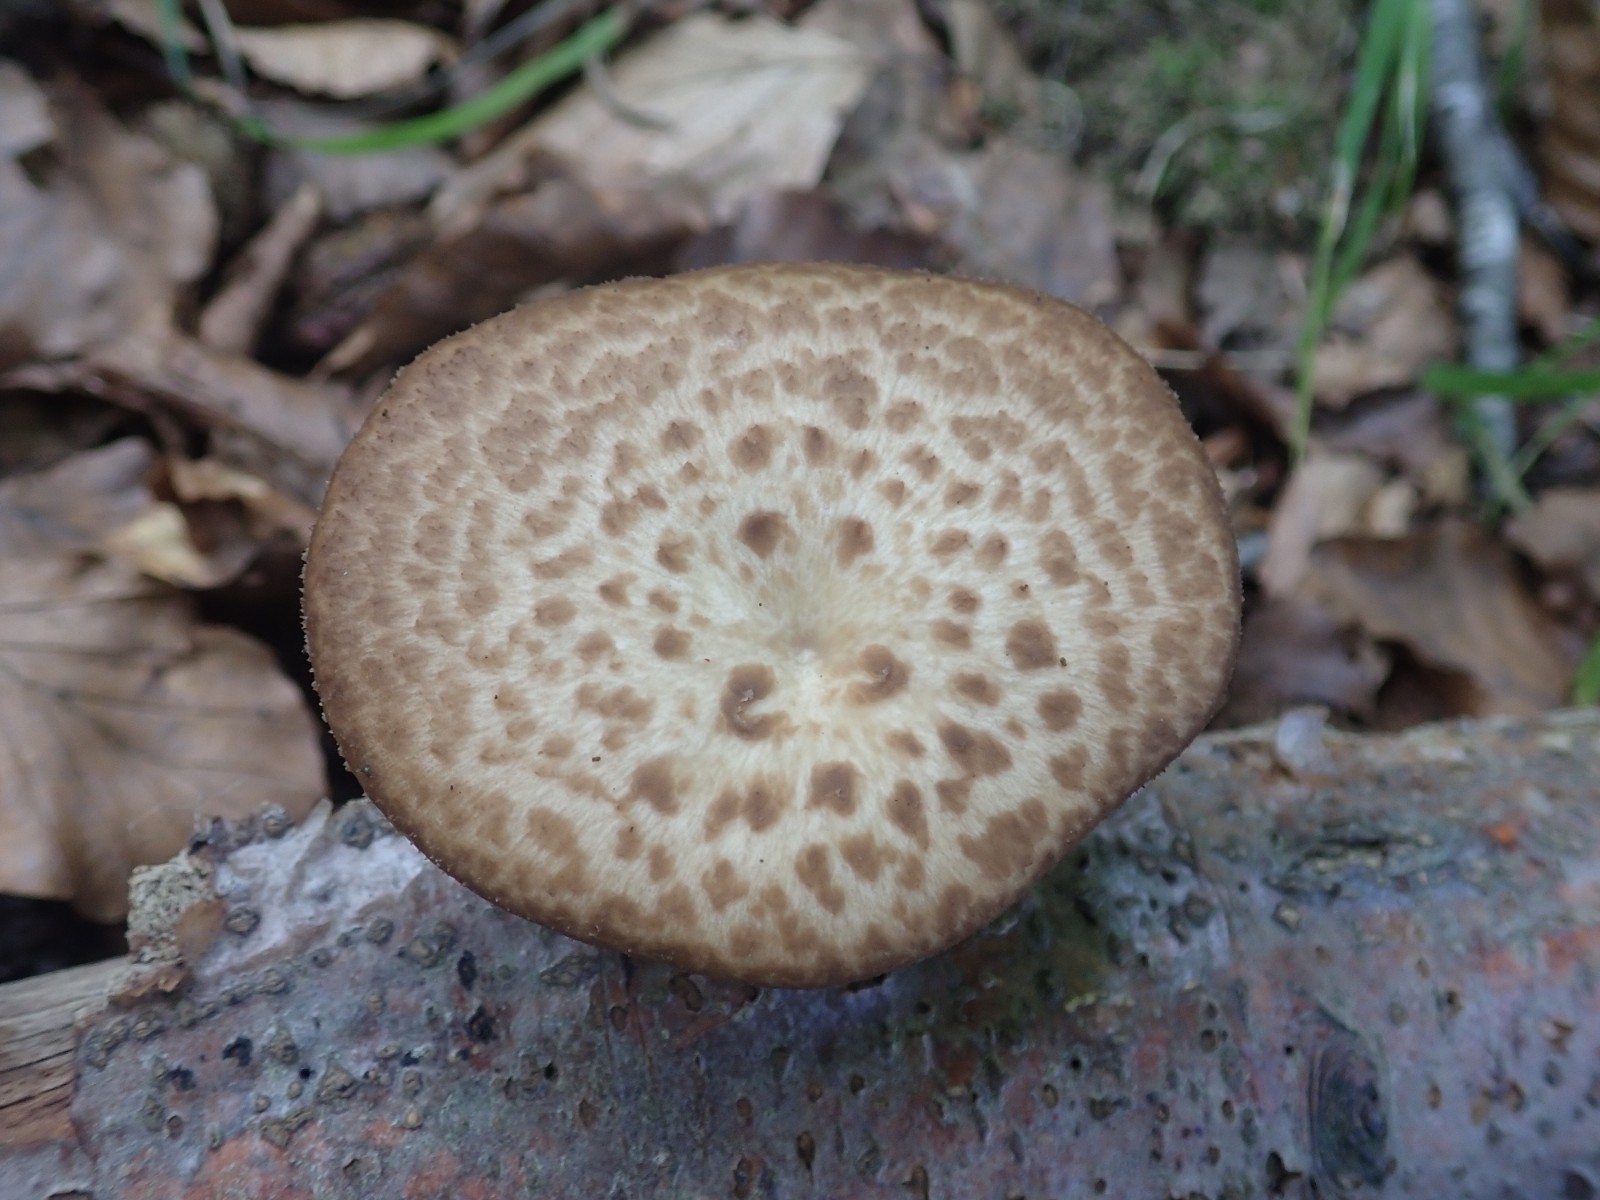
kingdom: Fungi
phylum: Basidiomycota
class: Agaricomycetes
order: Polyporales
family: Polyporaceae
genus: Polyporus
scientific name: Polyporus tuberaster
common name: knoldet stilkporesvamp
